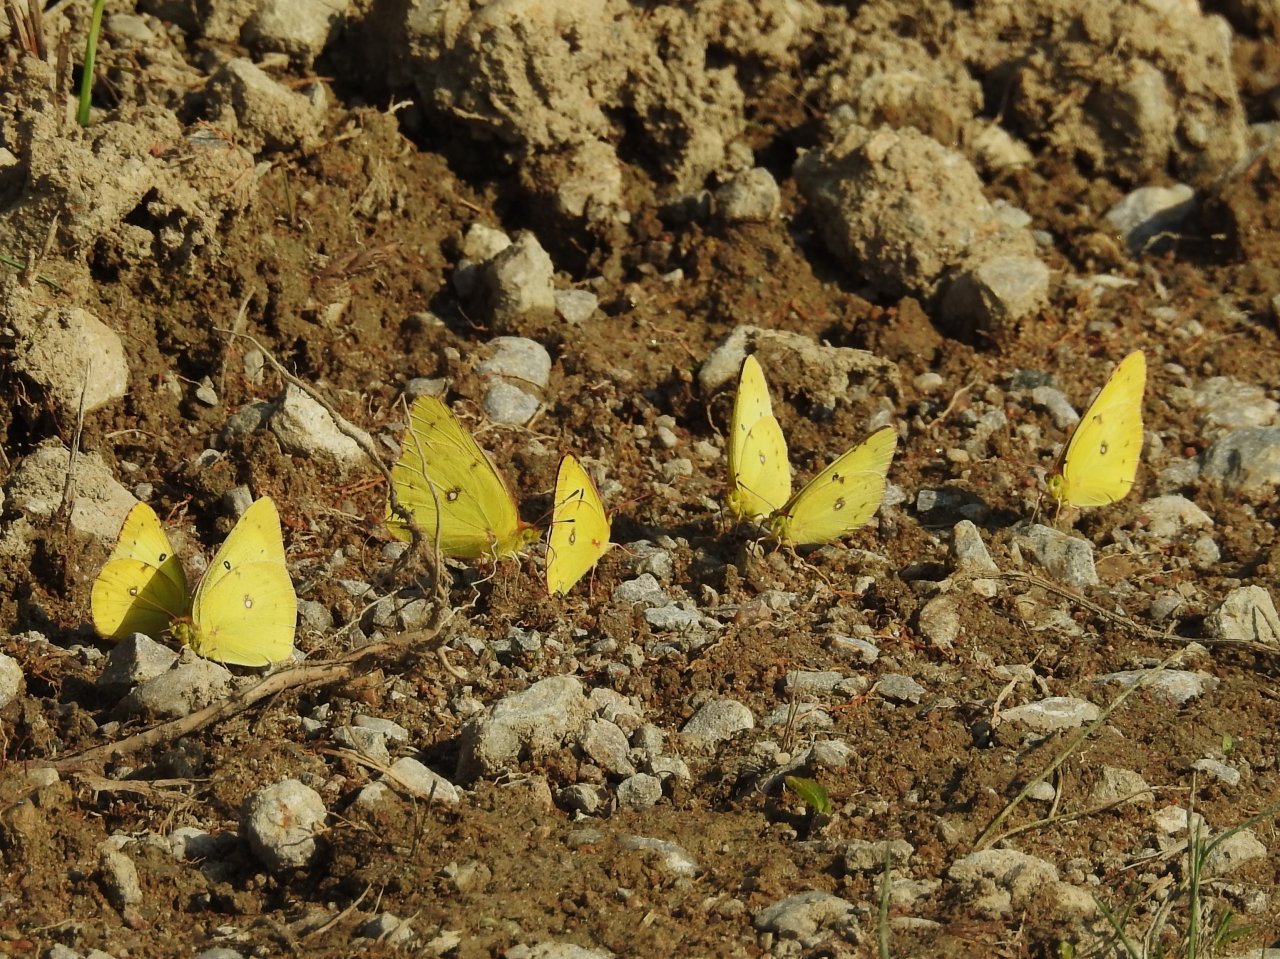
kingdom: Animalia
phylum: Arthropoda
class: Insecta
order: Lepidoptera
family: Pieridae
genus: Colias
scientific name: Colias philodice
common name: Clouded Sulphur
